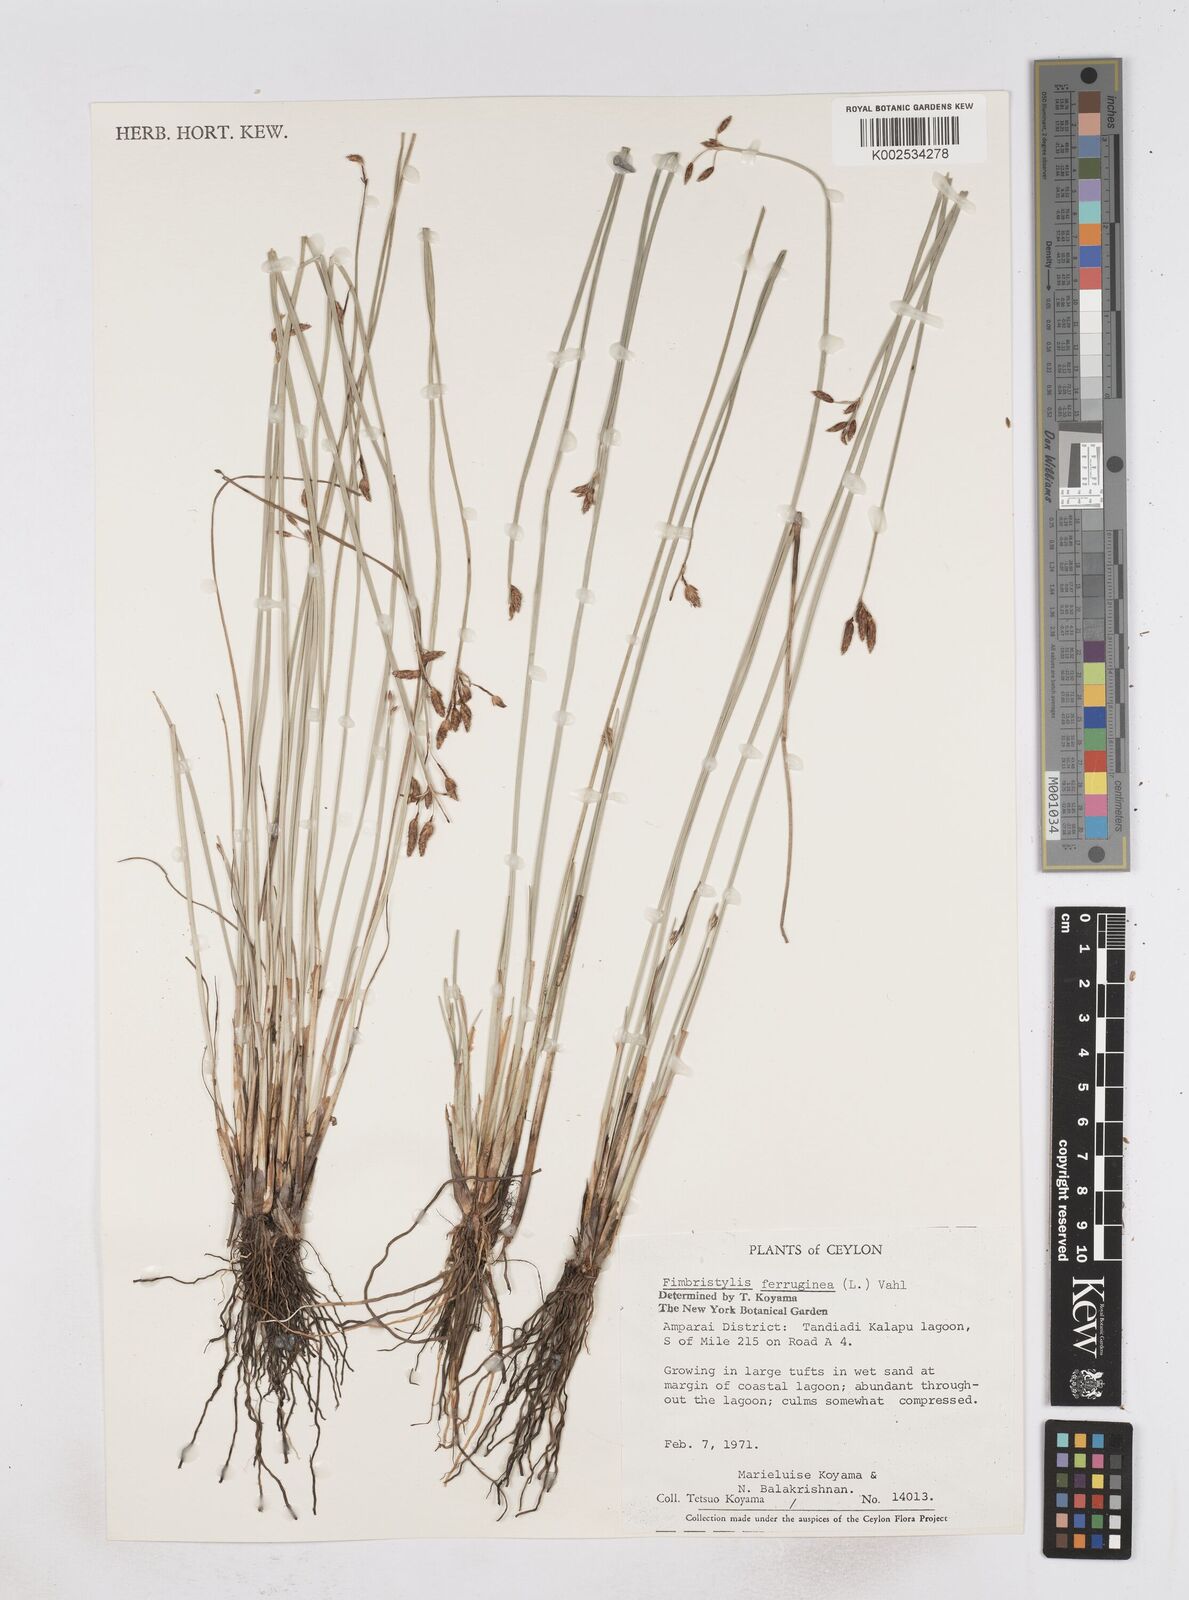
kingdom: Plantae
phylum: Tracheophyta
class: Liliopsida
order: Poales
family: Cyperaceae
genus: Fimbristylis
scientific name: Fimbristylis ferruginea
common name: West indian fimbry
